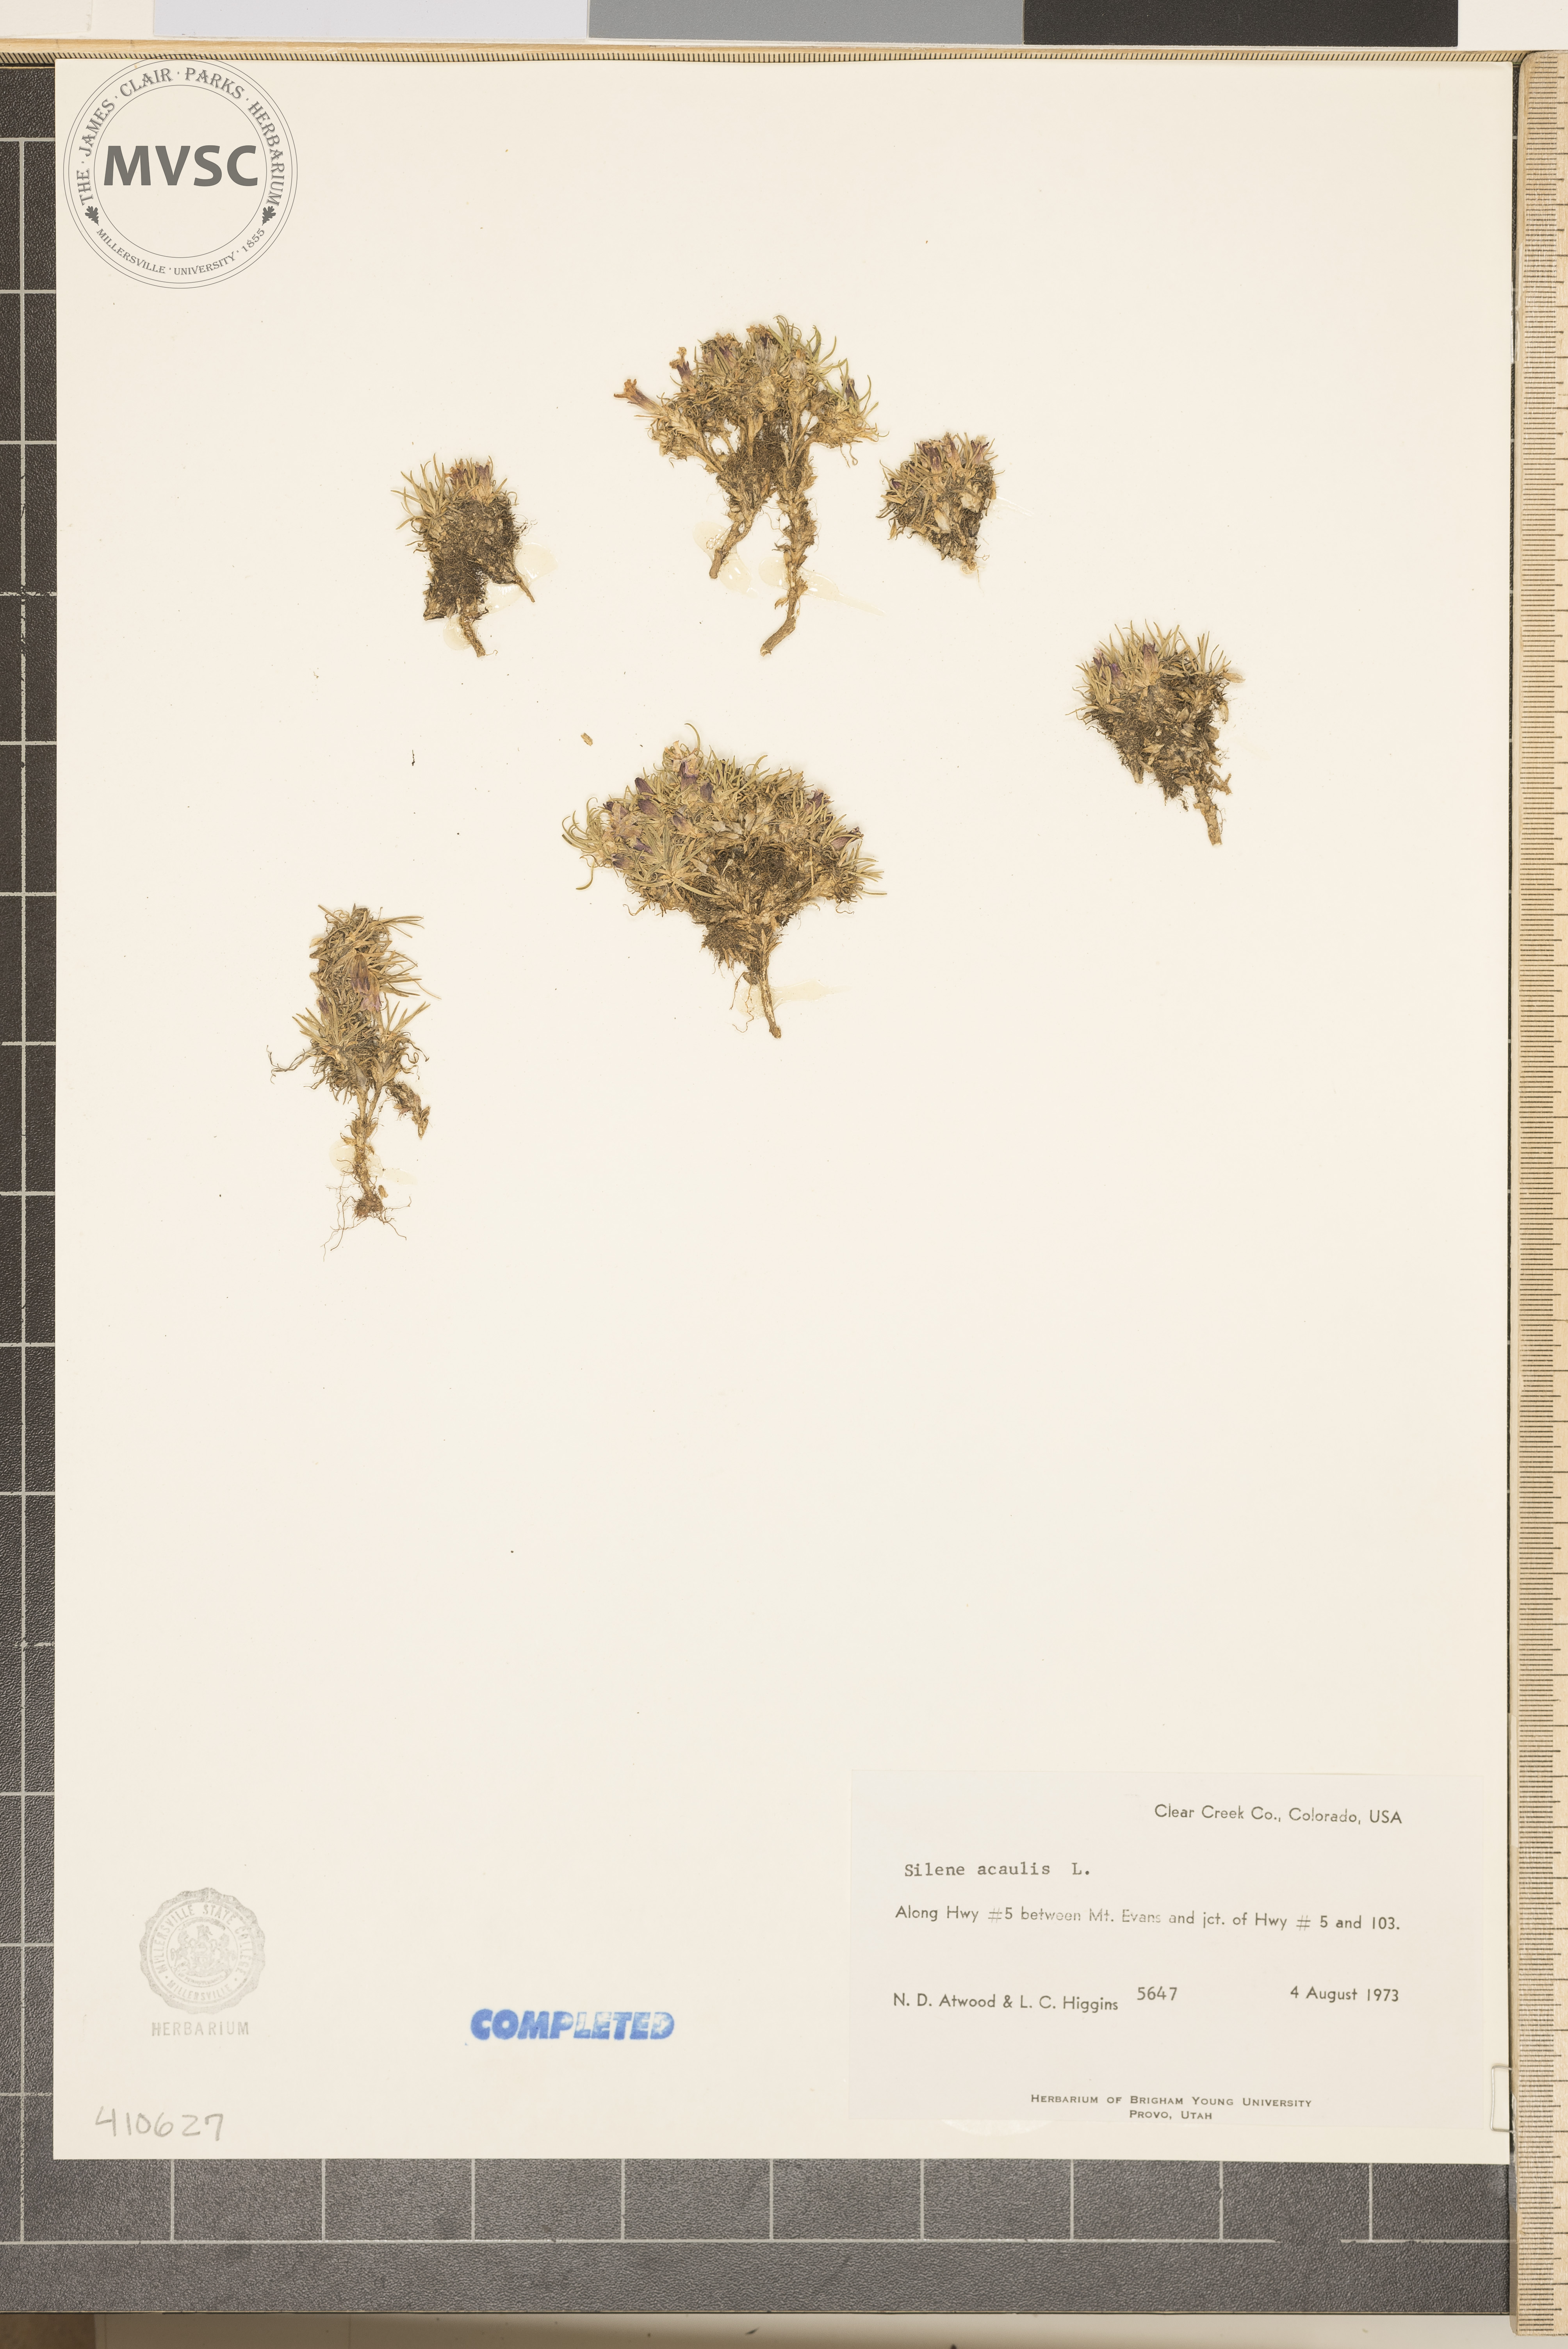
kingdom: Plantae
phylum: Tracheophyta
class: Magnoliopsida
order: Caryophyllales
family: Caryophyllaceae
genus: Silene
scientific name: Silene acaulis
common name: Moss campion
